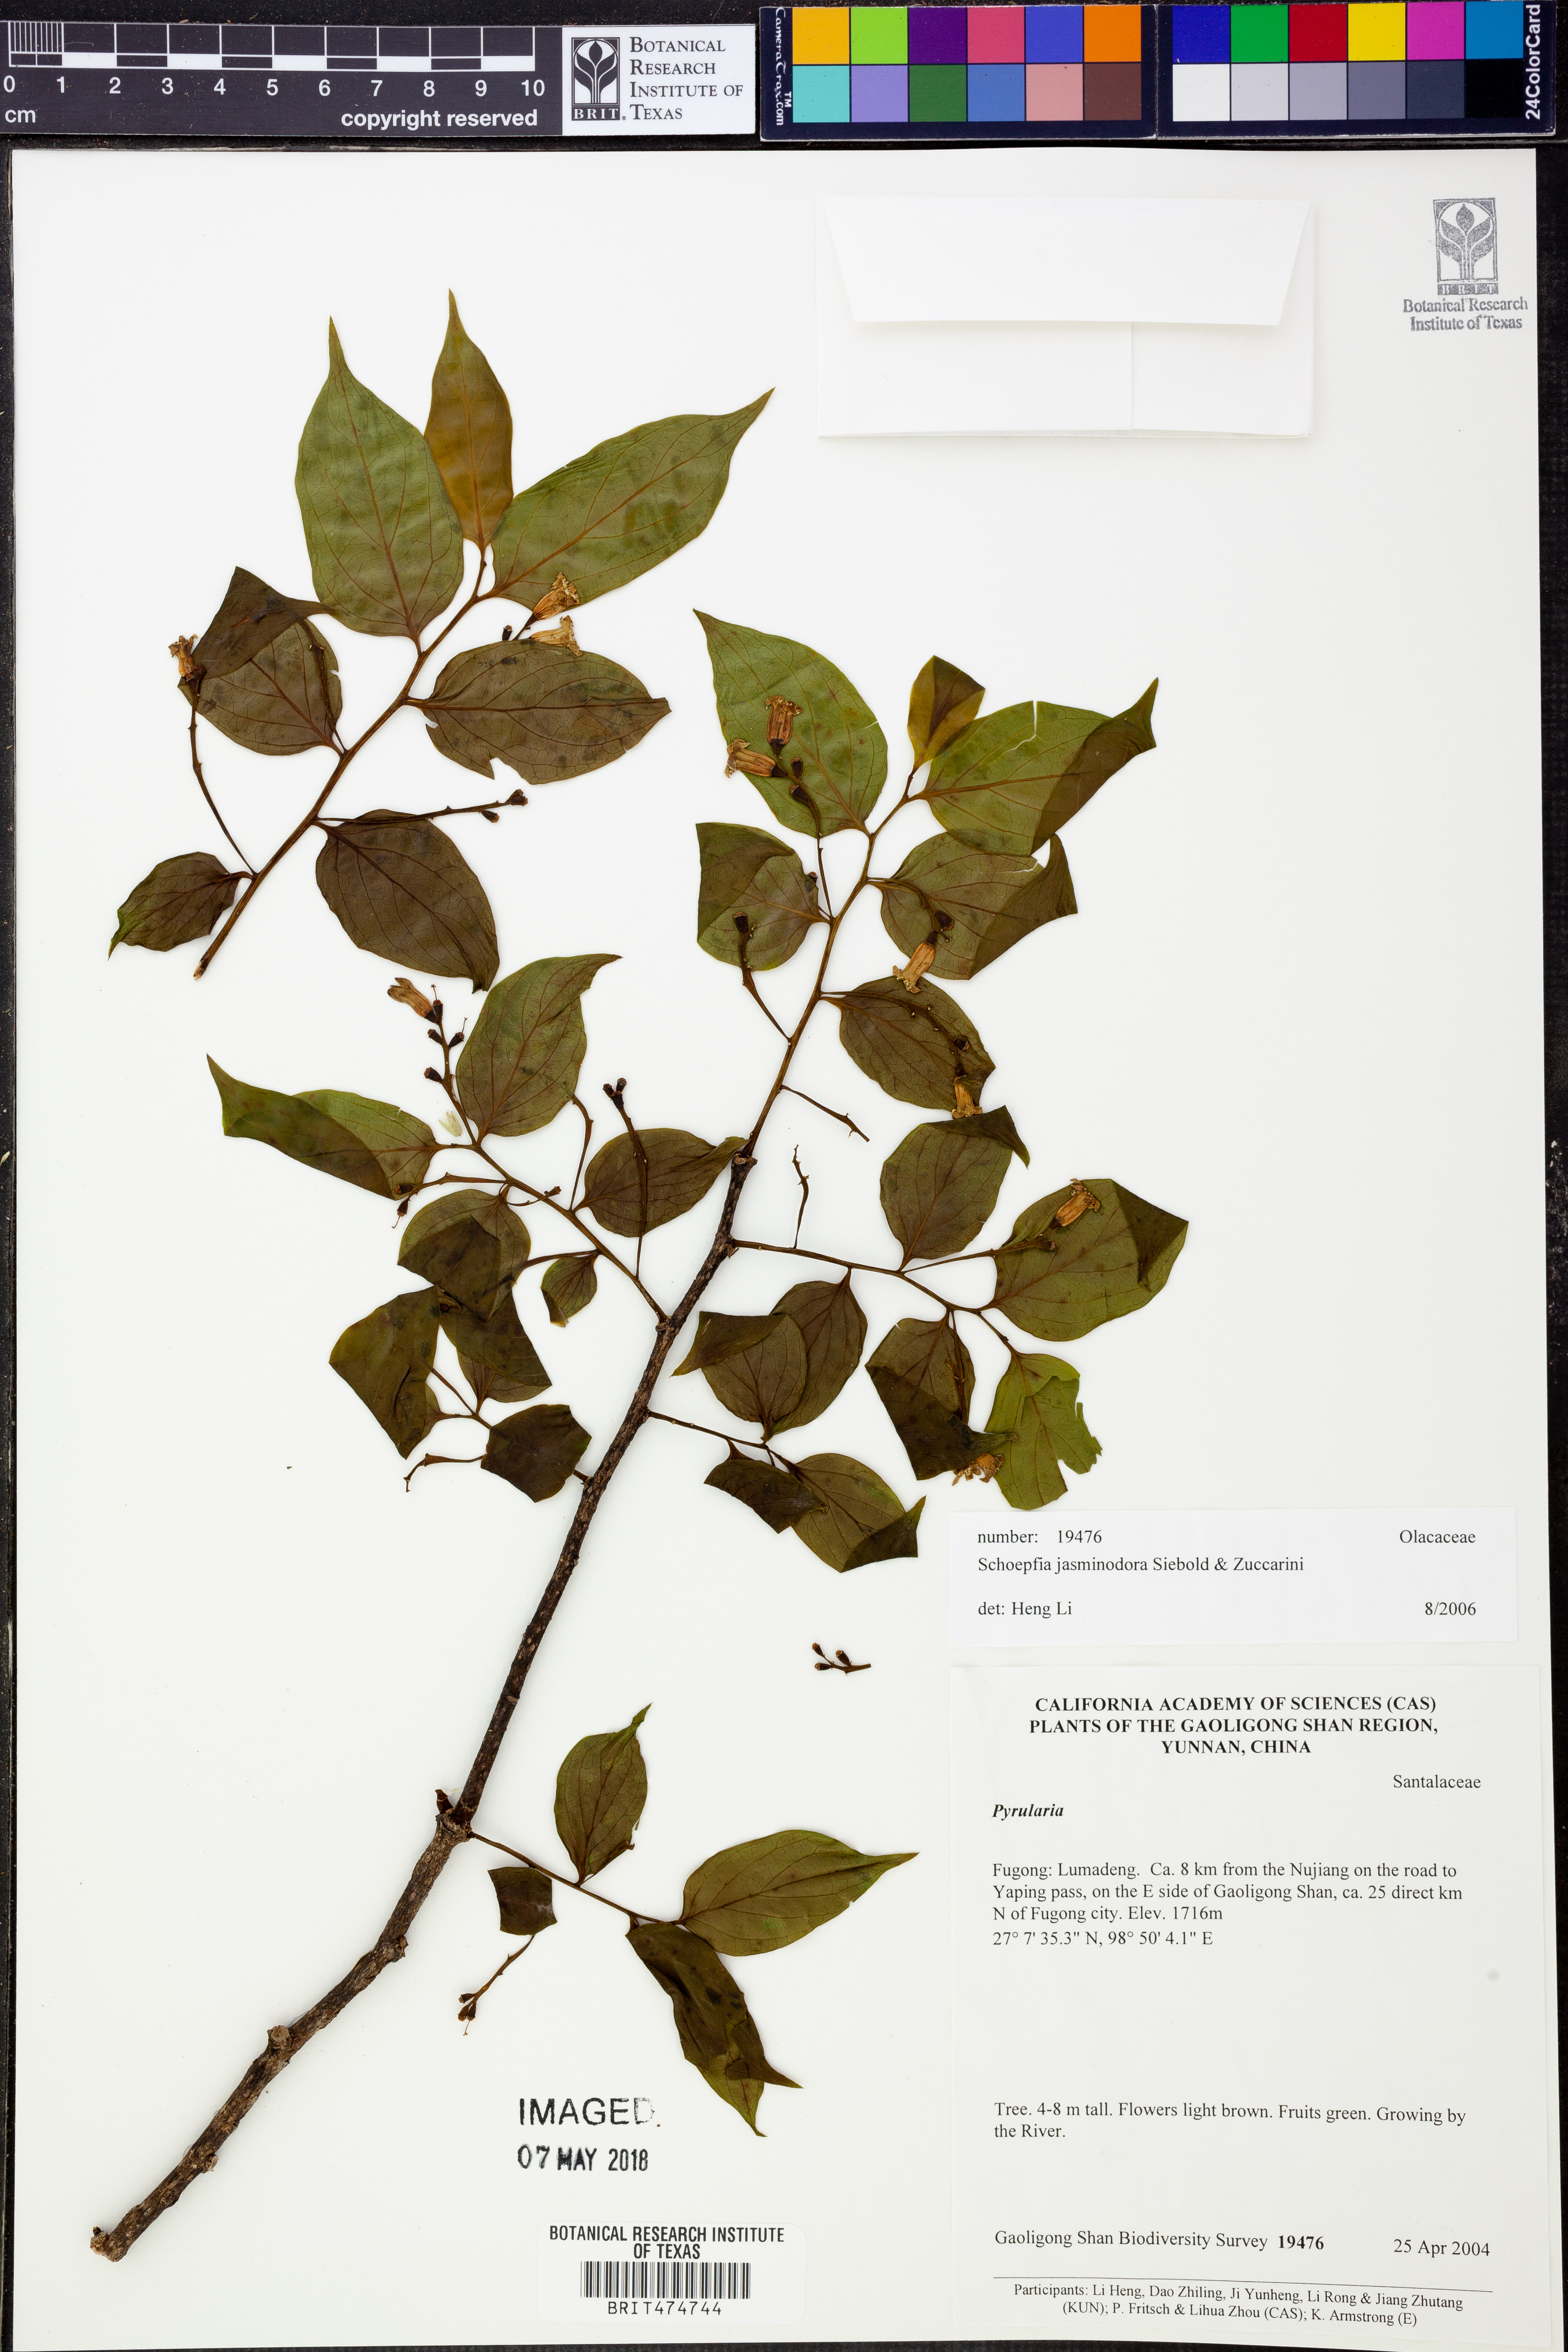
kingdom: Plantae
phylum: Tracheophyta
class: Magnoliopsida
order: Santalales
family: Schoepfiaceae
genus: Schoepfia
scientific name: Schoepfia jasminodora
